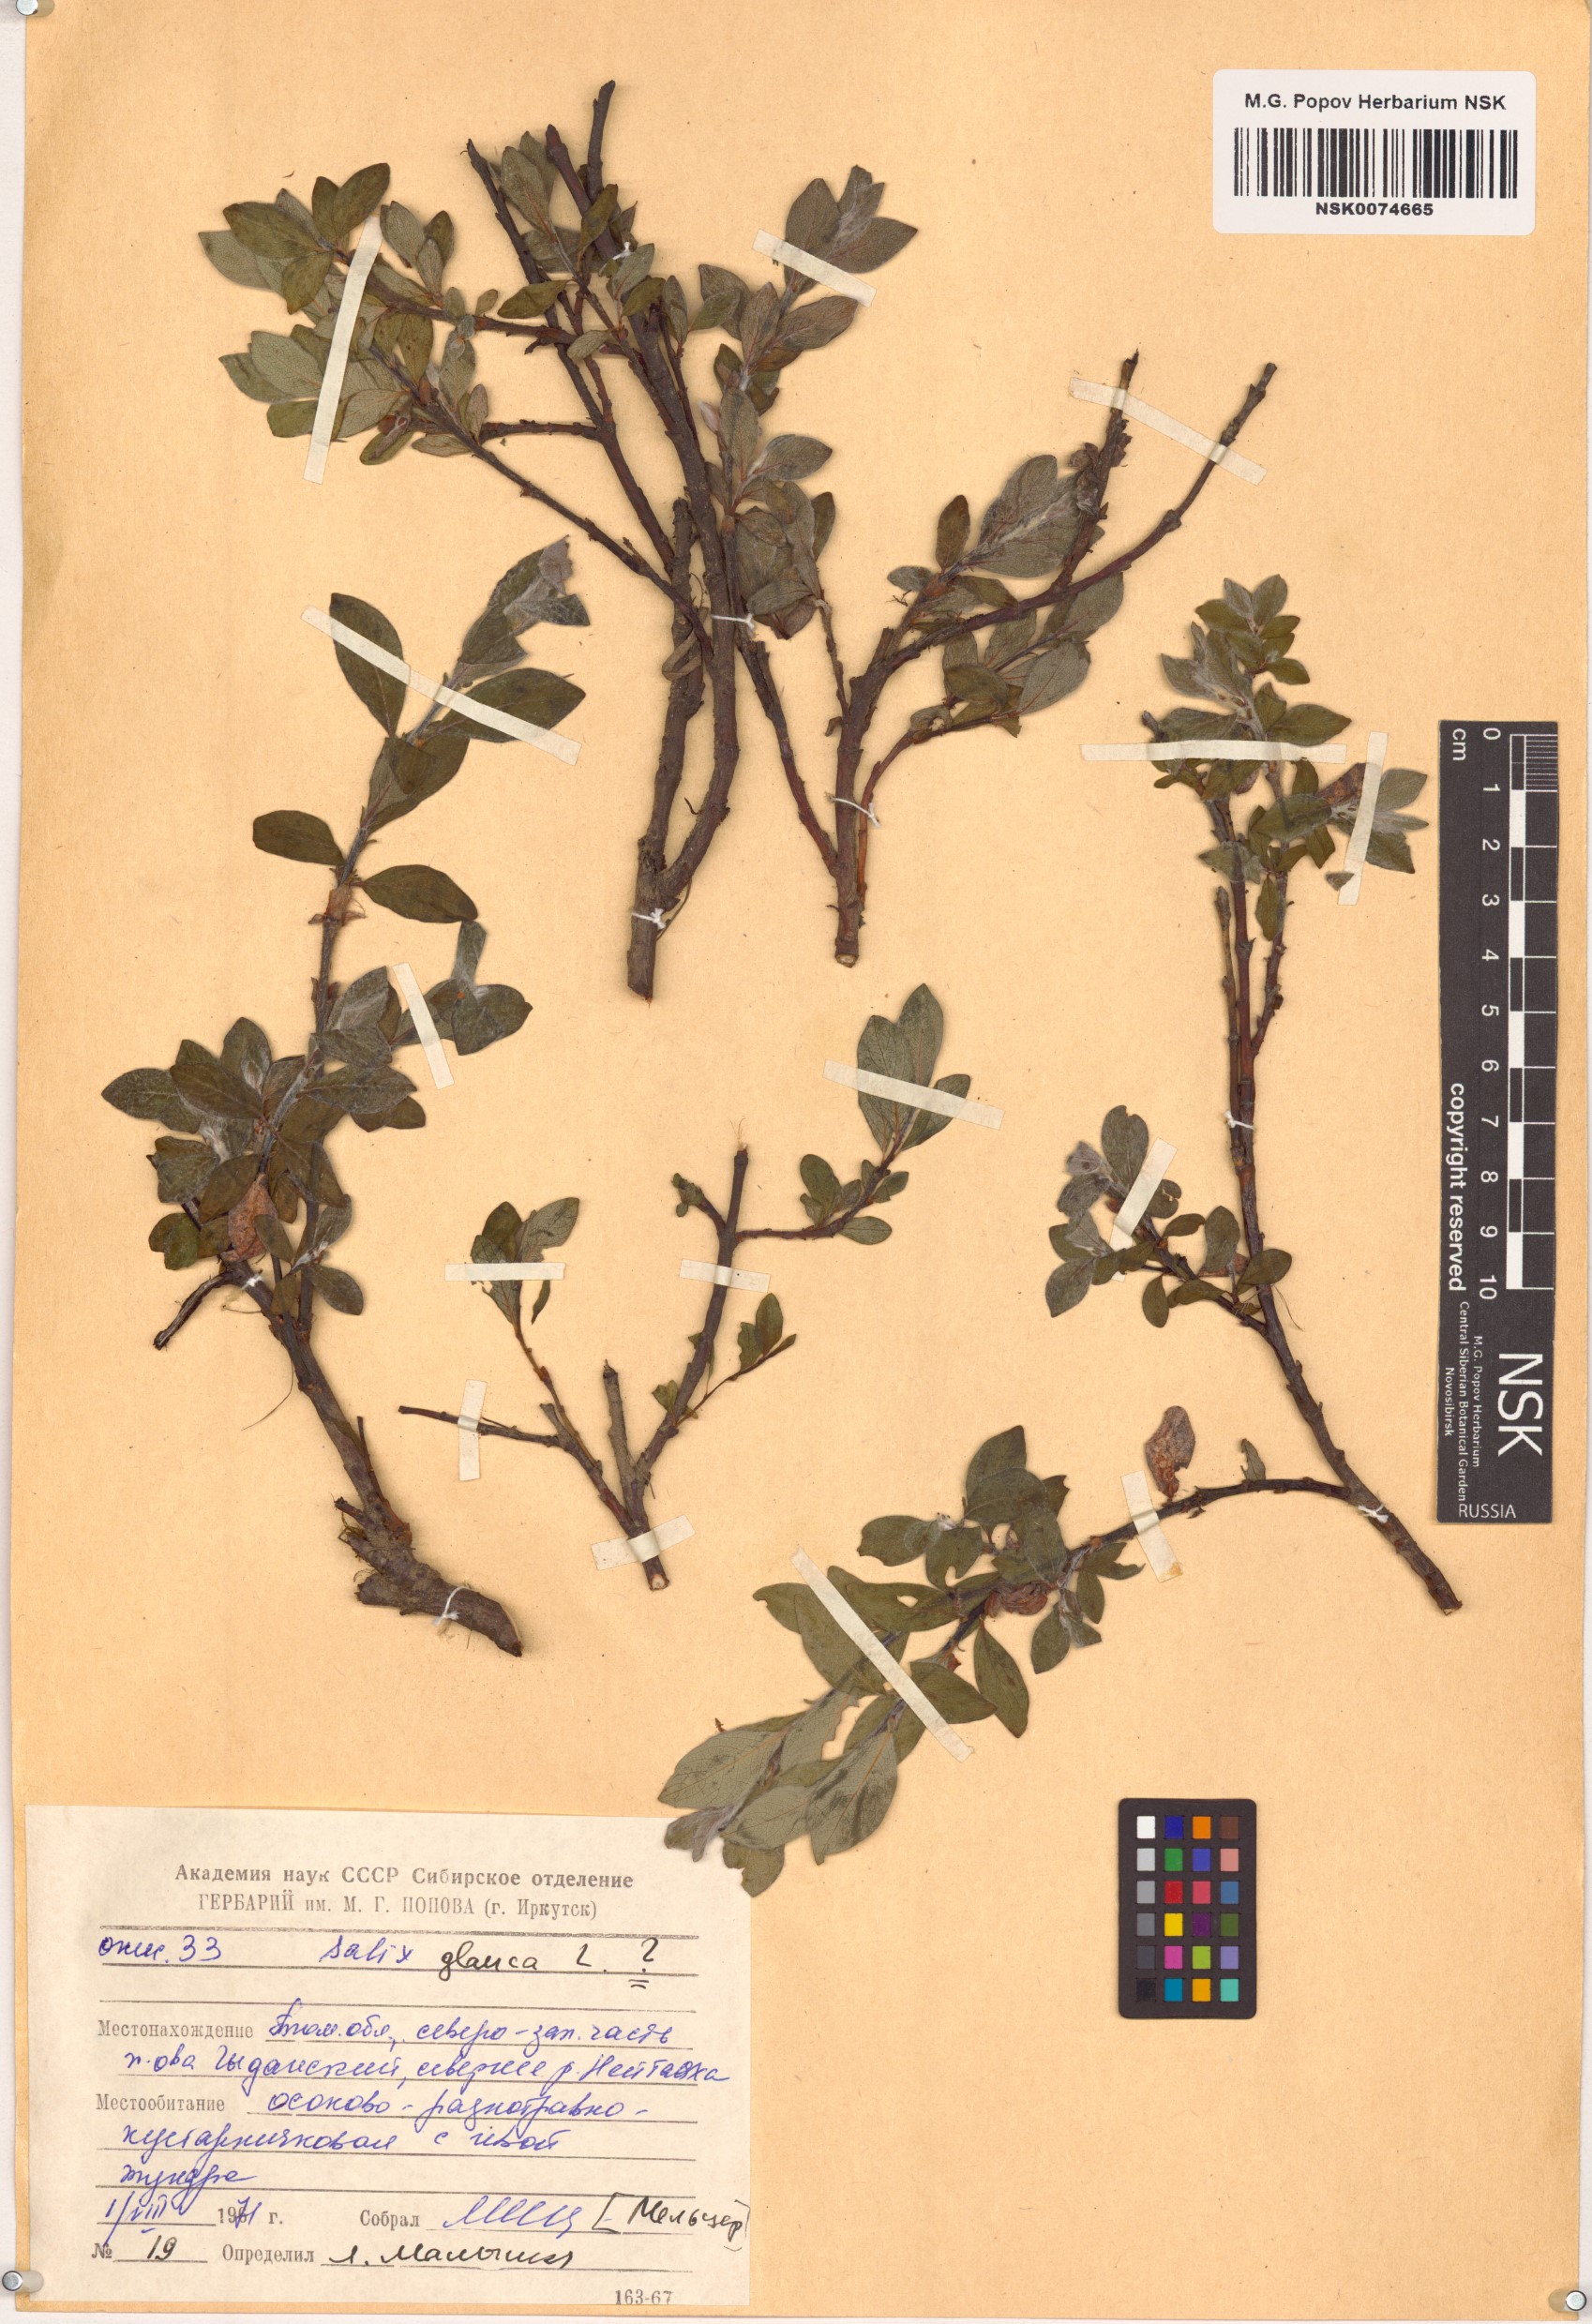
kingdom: Plantae
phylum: Tracheophyta
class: Magnoliopsida
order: Malpighiales
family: Salicaceae
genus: Salix
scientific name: Salix glauca
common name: Glaucous willow
